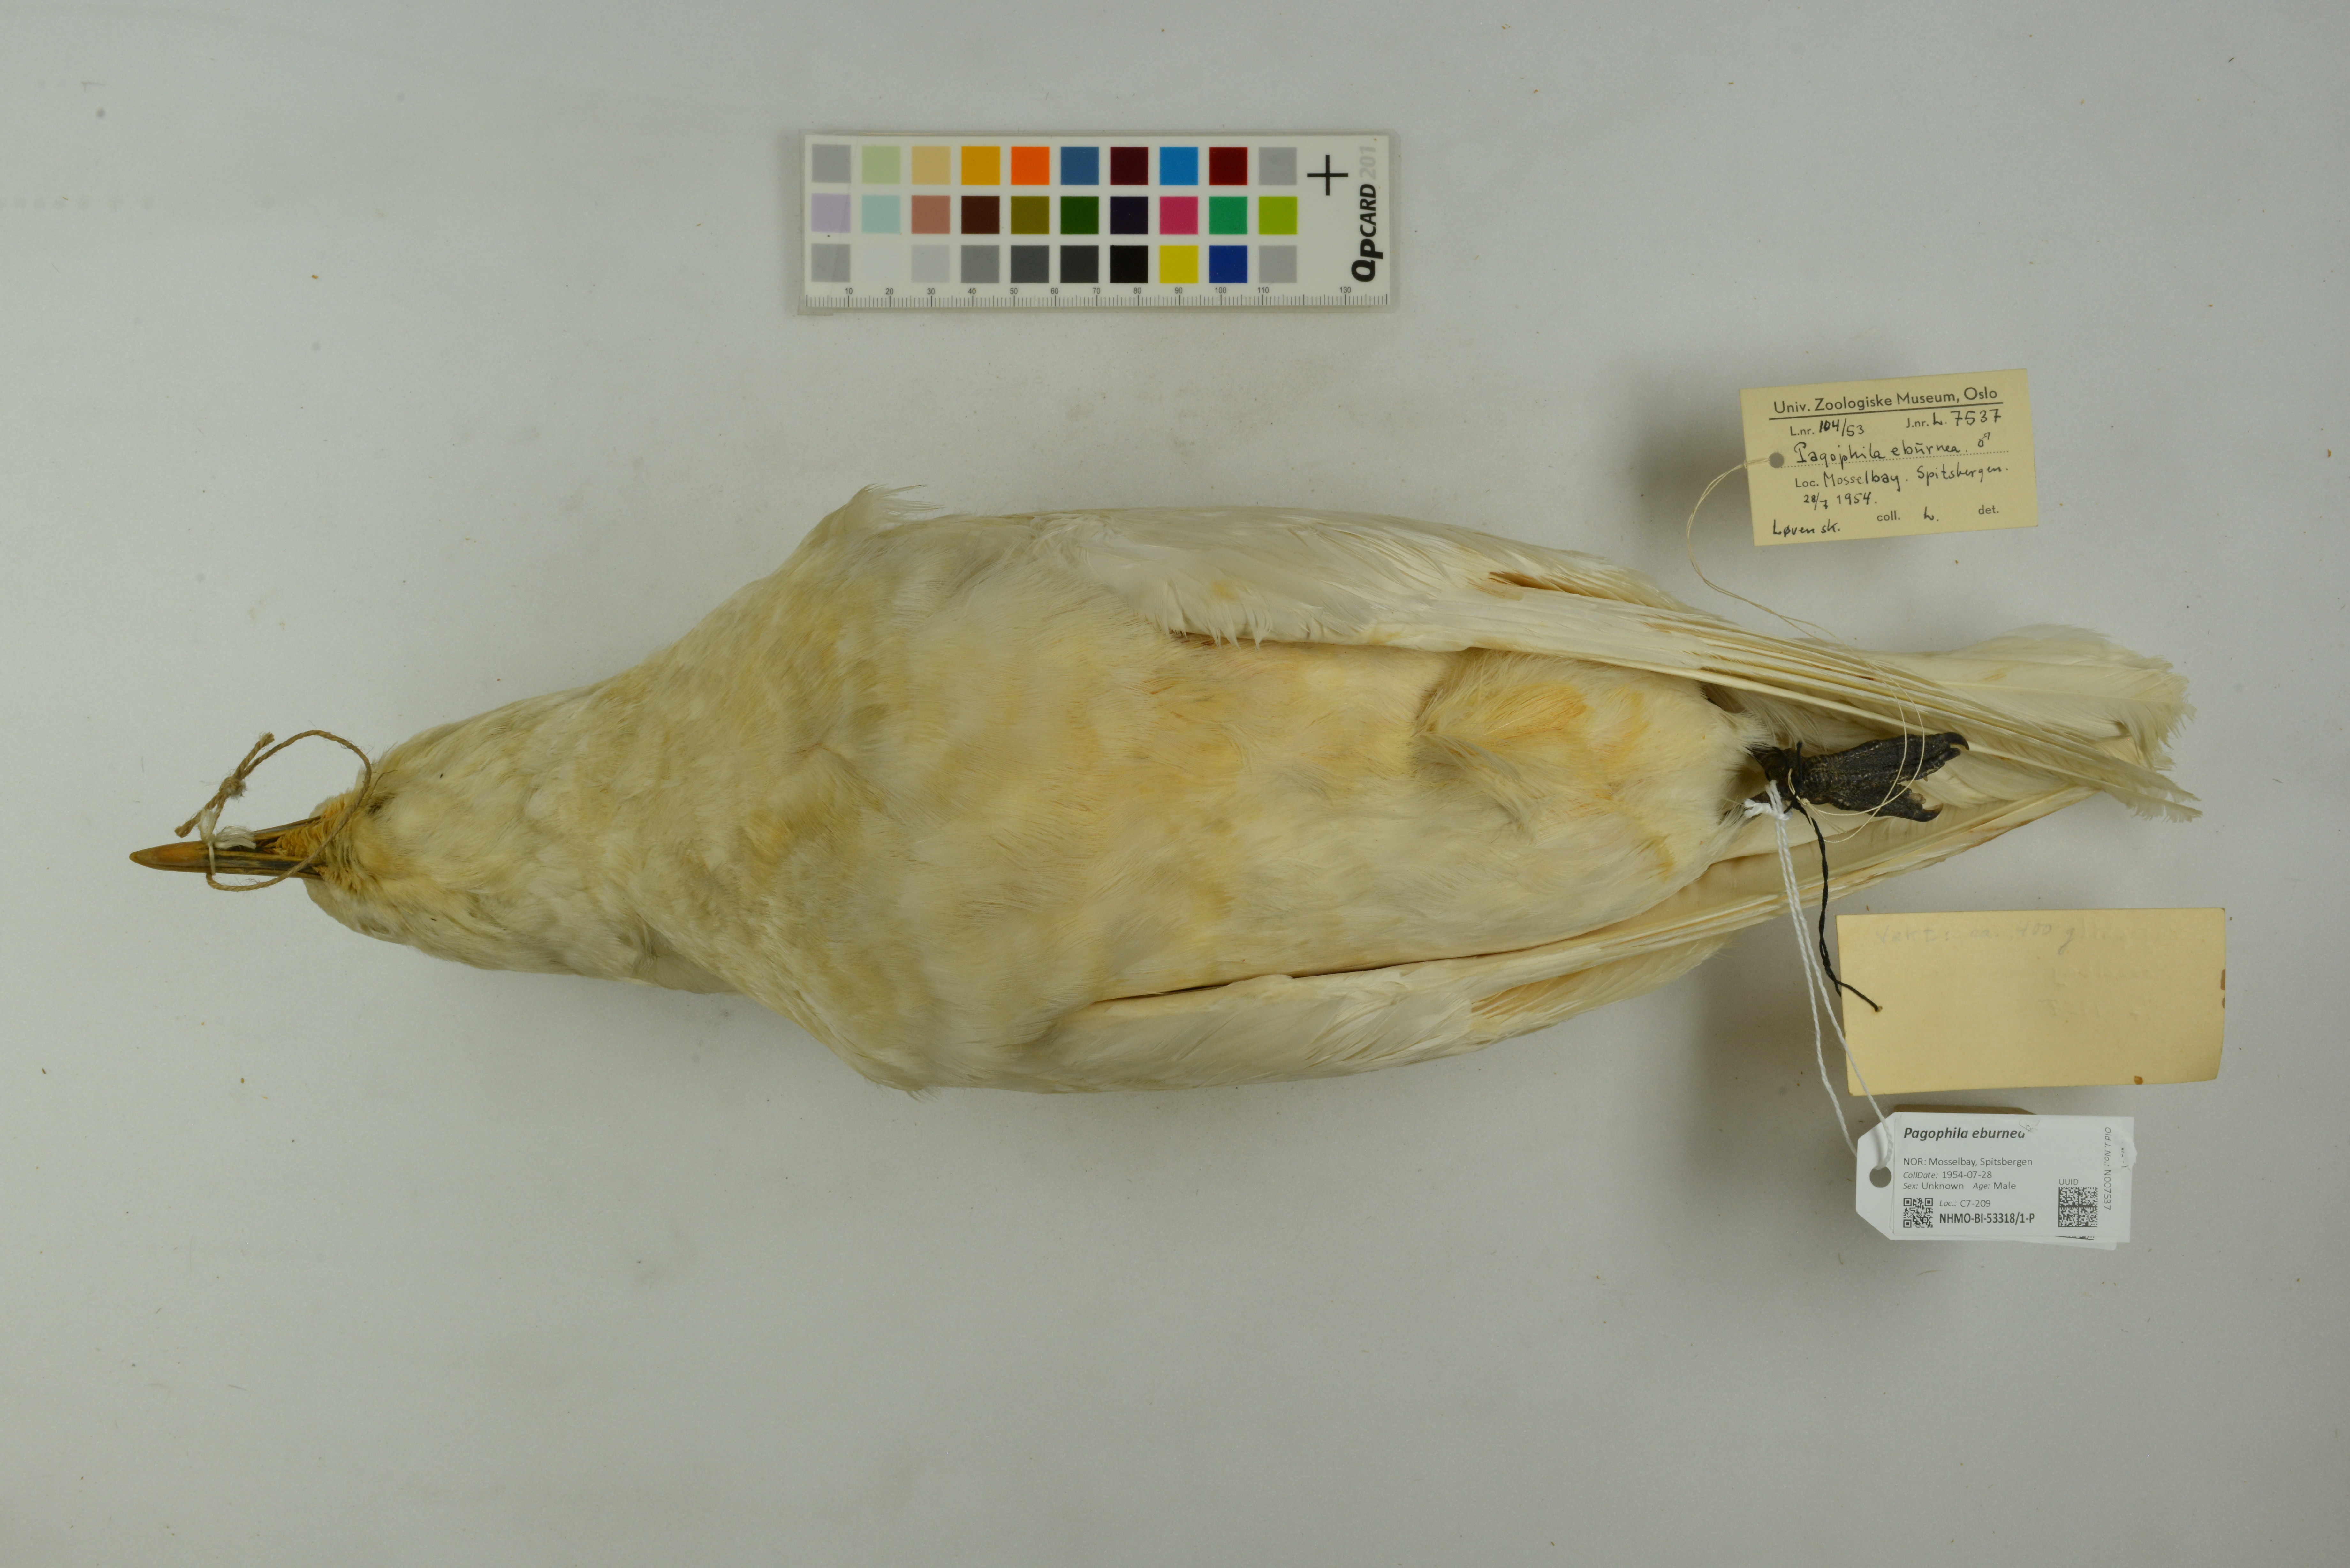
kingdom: Animalia
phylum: Chordata
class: Aves
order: Charadriiformes
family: Laridae
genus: Pagophila
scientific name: Pagophila eburnea
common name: Ivory gull
